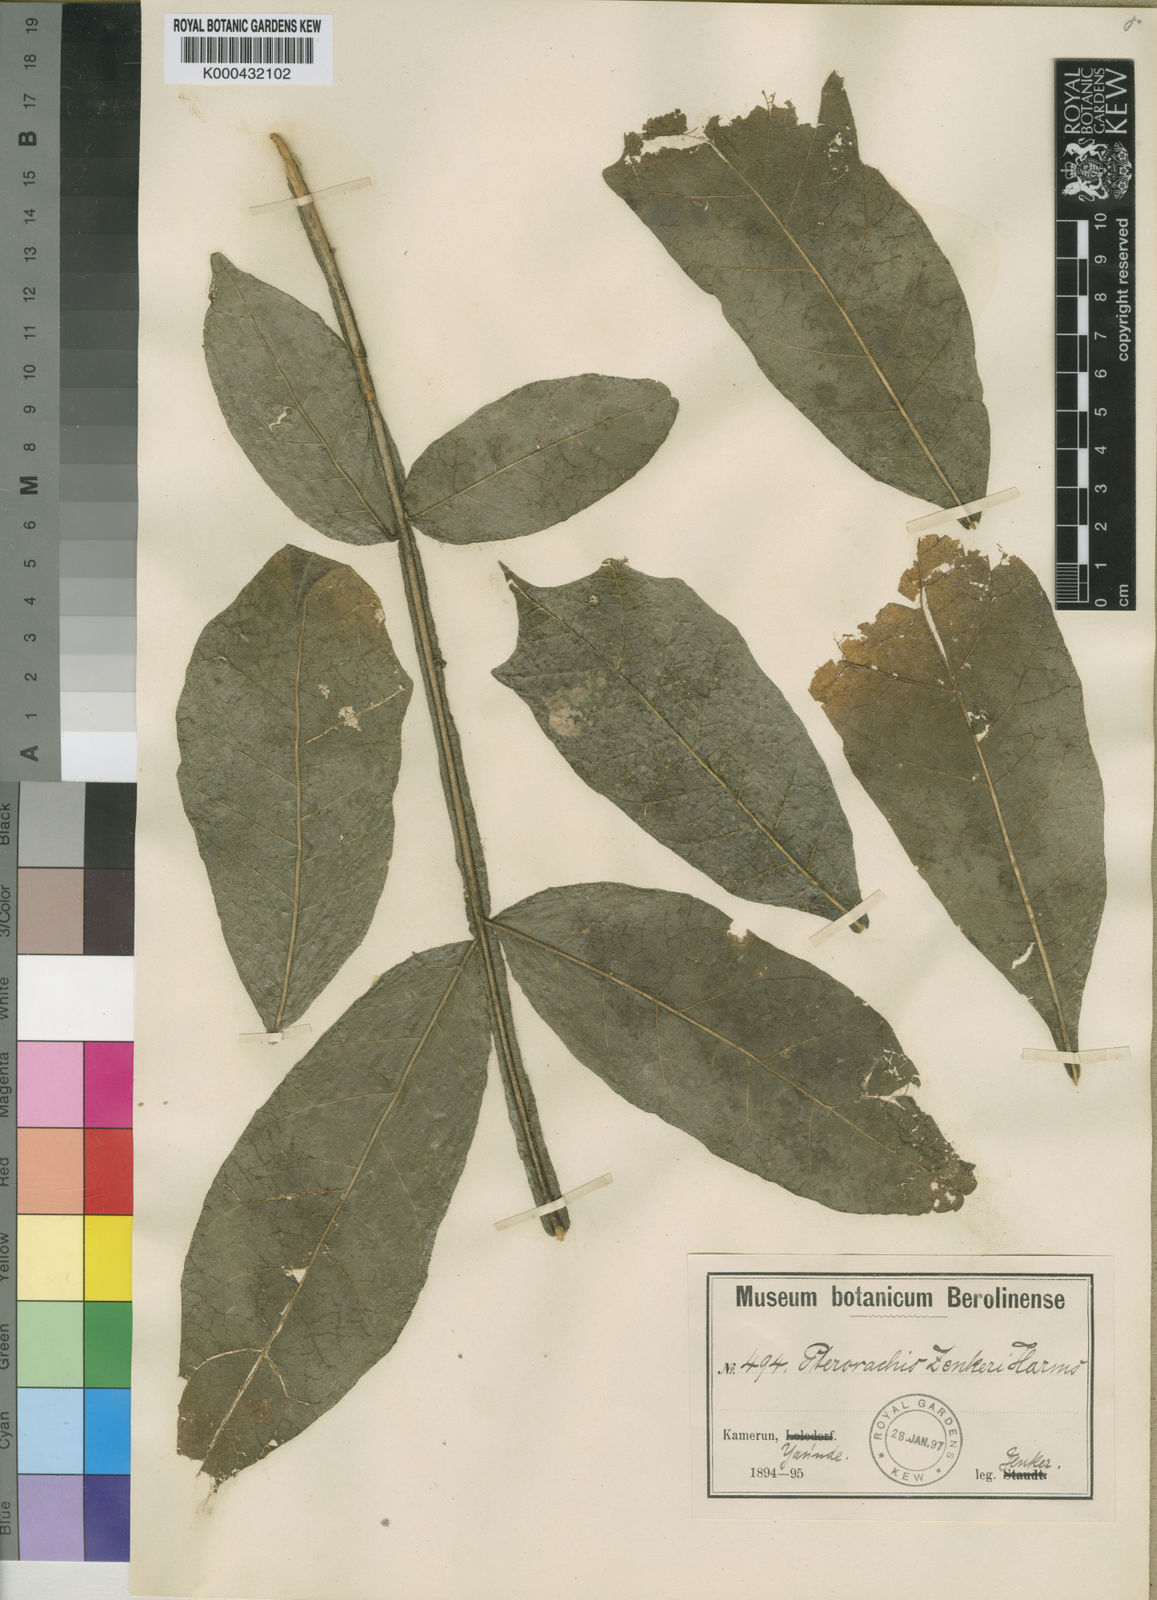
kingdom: Plantae
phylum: Tracheophyta
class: Magnoliopsida
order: Sapindales
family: Meliaceae
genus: Pterorhachis
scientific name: Pterorhachis zenkeri
